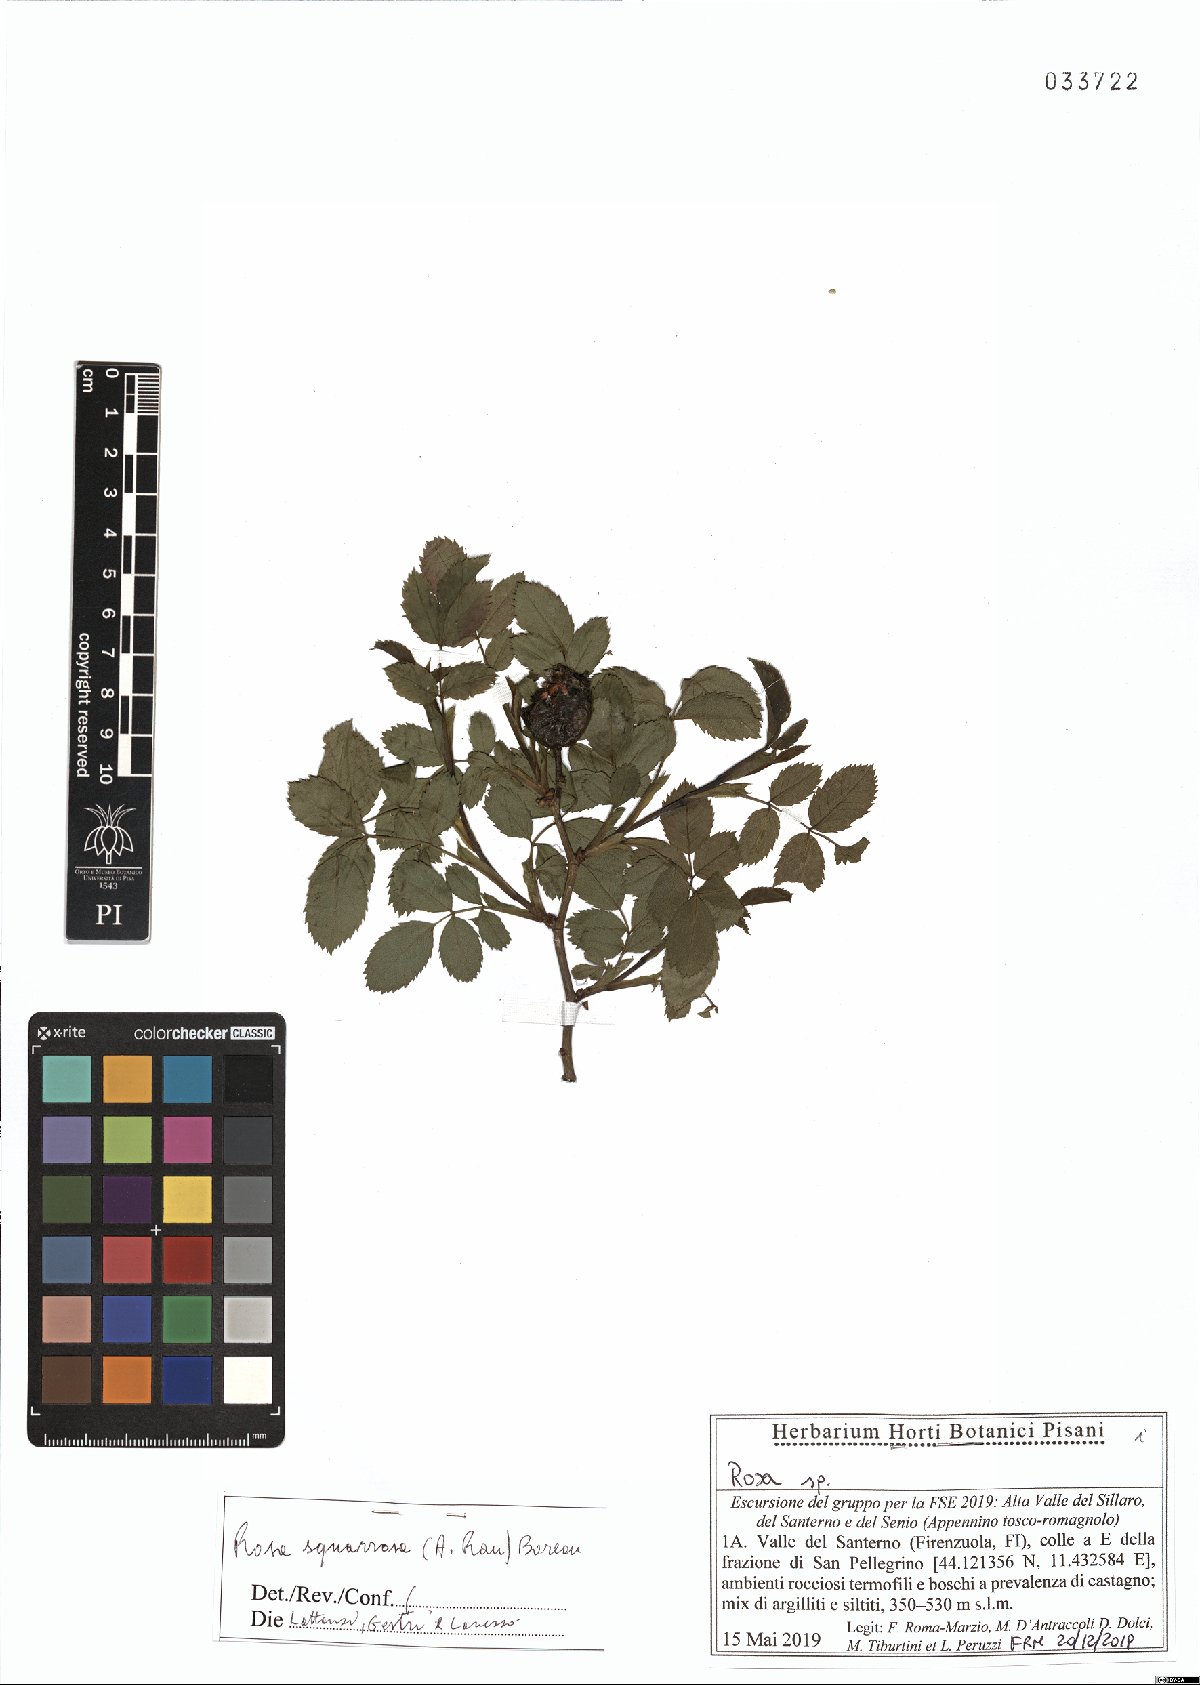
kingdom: Plantae
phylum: Tracheophyta
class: Magnoliopsida
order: Rosales
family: Rosaceae
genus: Rosa
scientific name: Rosa canina
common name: Dog rose
